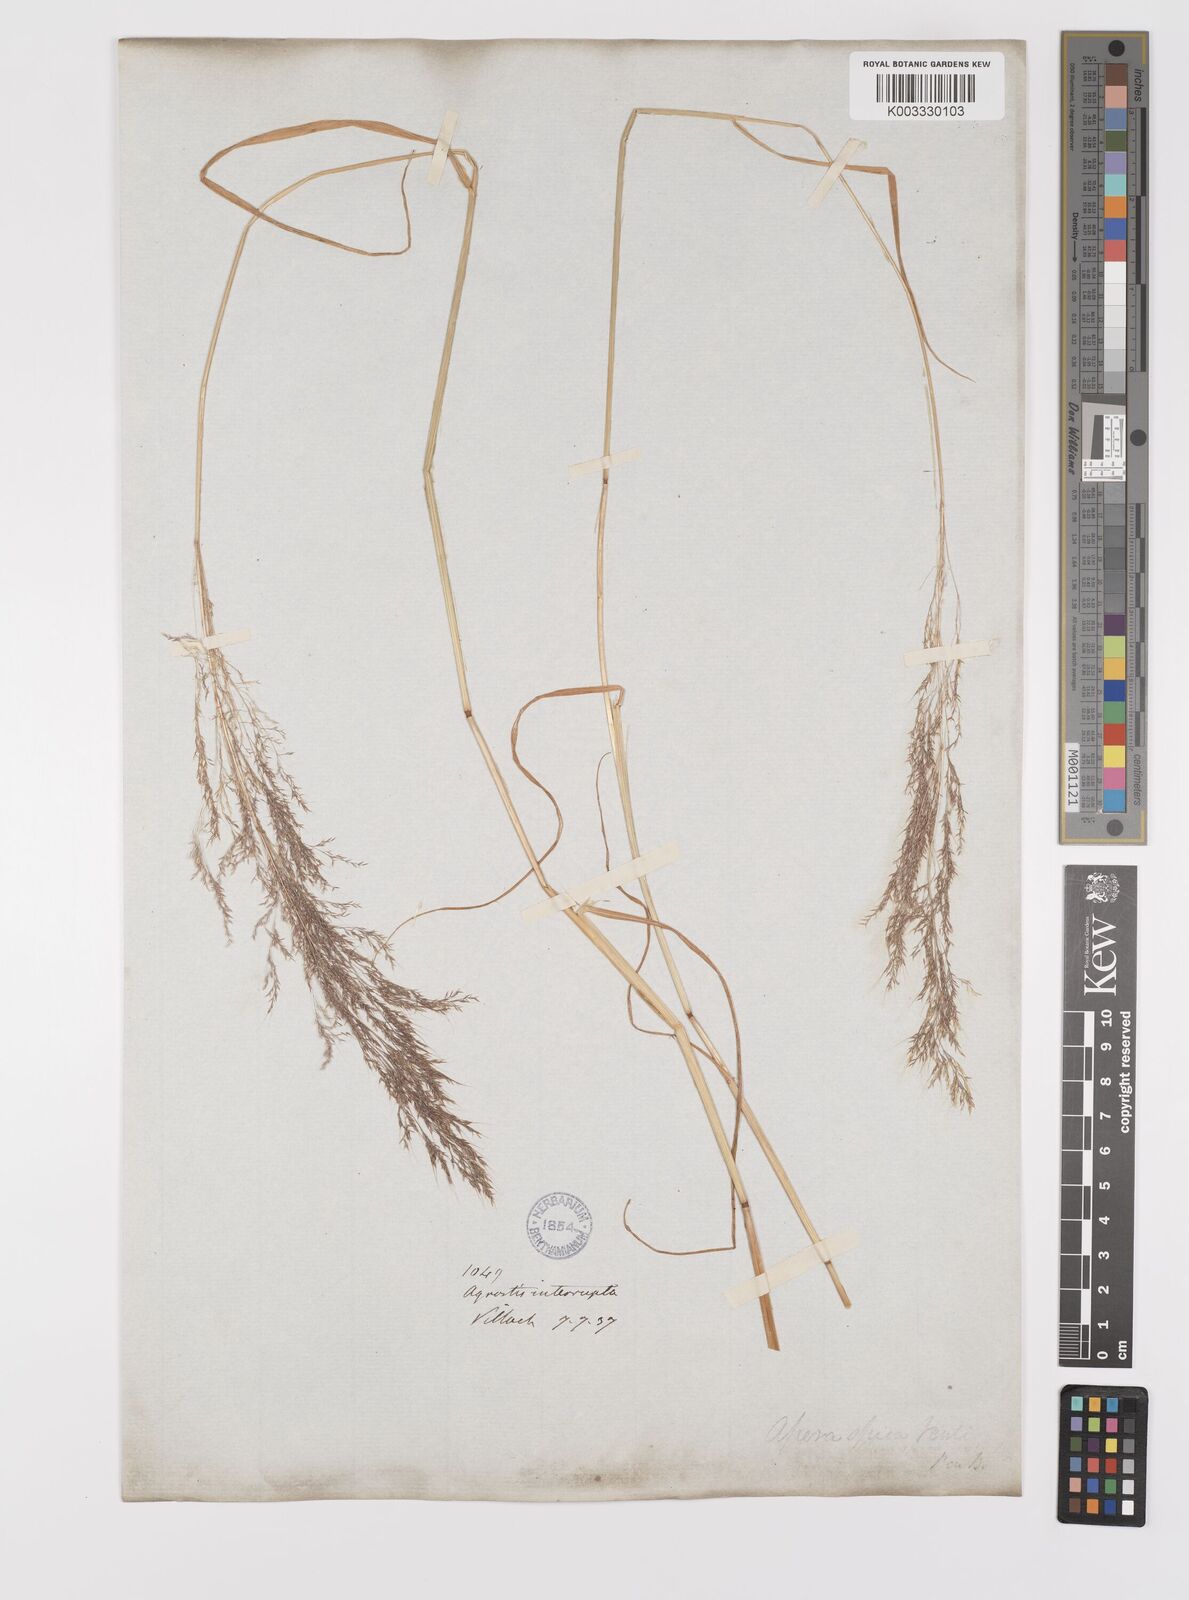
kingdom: Plantae
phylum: Tracheophyta
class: Liliopsida
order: Poales
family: Poaceae
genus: Apera
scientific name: Apera spica-venti
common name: Loose silky-bent
